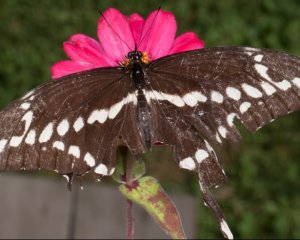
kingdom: Animalia
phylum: Arthropoda
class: Insecta
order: Lepidoptera
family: Papilionidae
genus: Papilio
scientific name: Papilio cresphontes
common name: Eastern Giant Swallowtail
